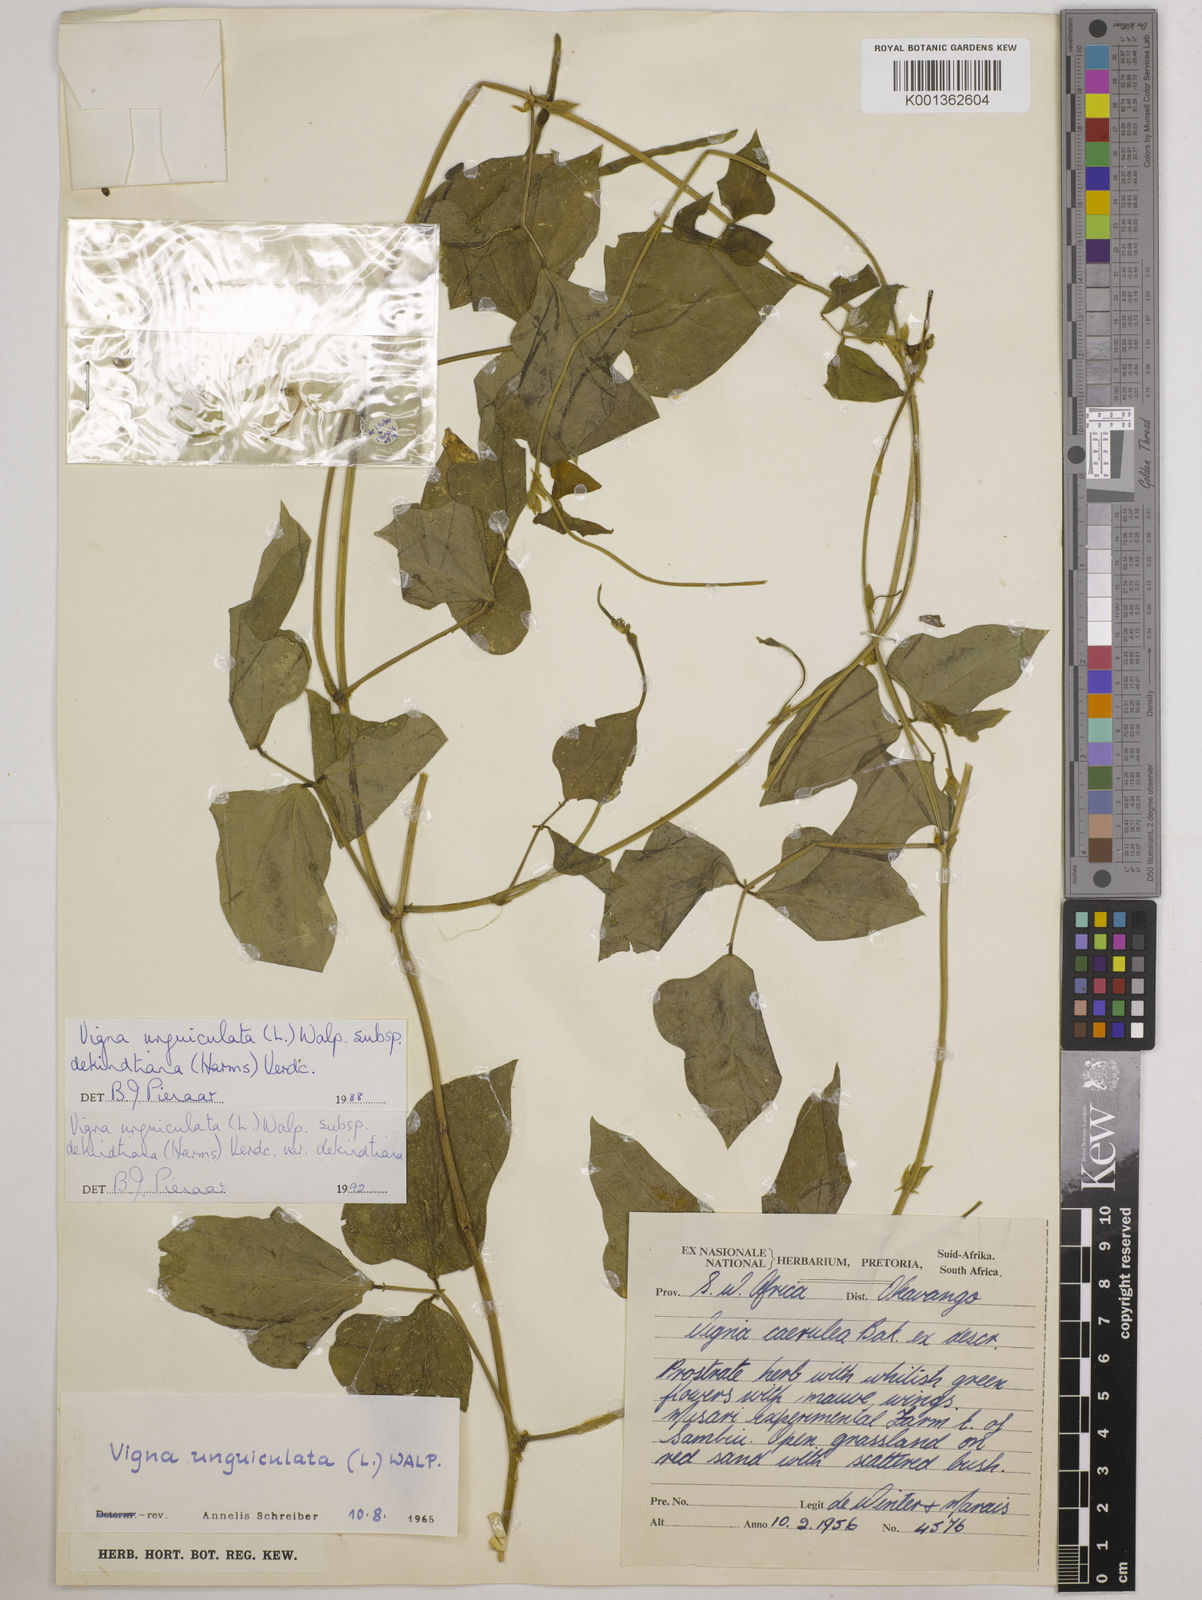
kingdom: Plantae
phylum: Tracheophyta
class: Magnoliopsida
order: Fabales
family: Fabaceae
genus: Vigna
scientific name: Vigna
